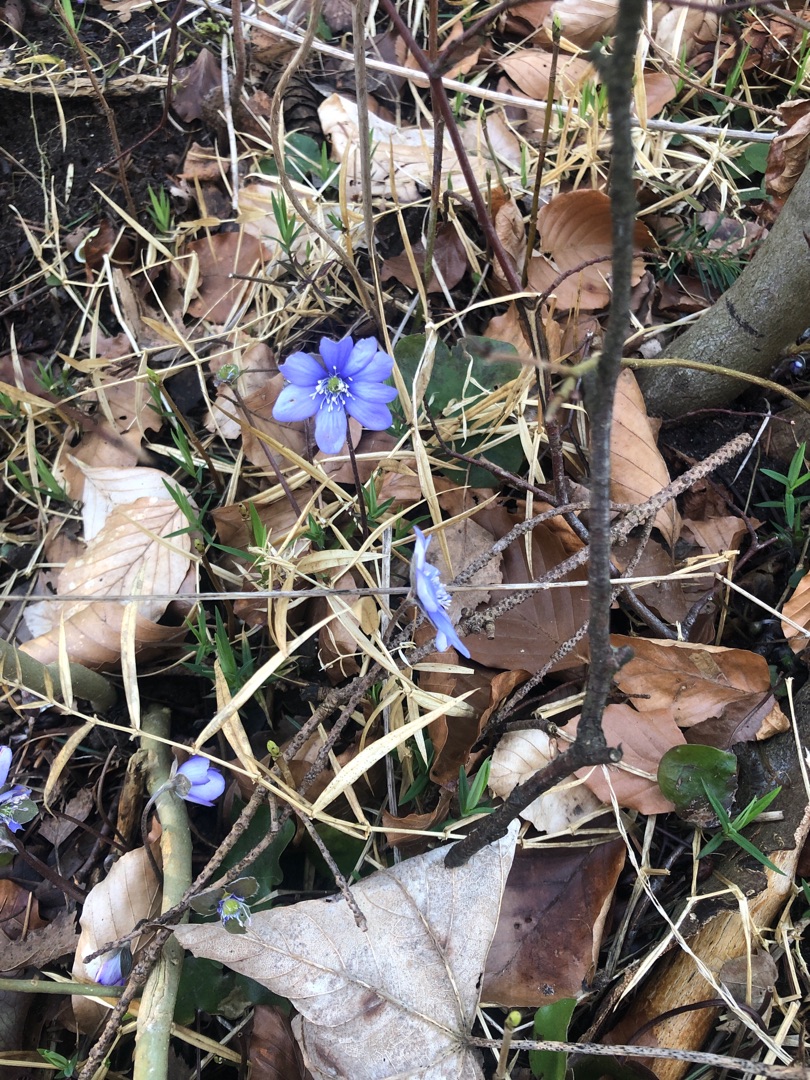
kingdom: Plantae
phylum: Tracheophyta
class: Magnoliopsida
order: Ranunculales
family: Ranunculaceae
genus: Hepatica
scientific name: Hepatica nobilis
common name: Blå anemone
